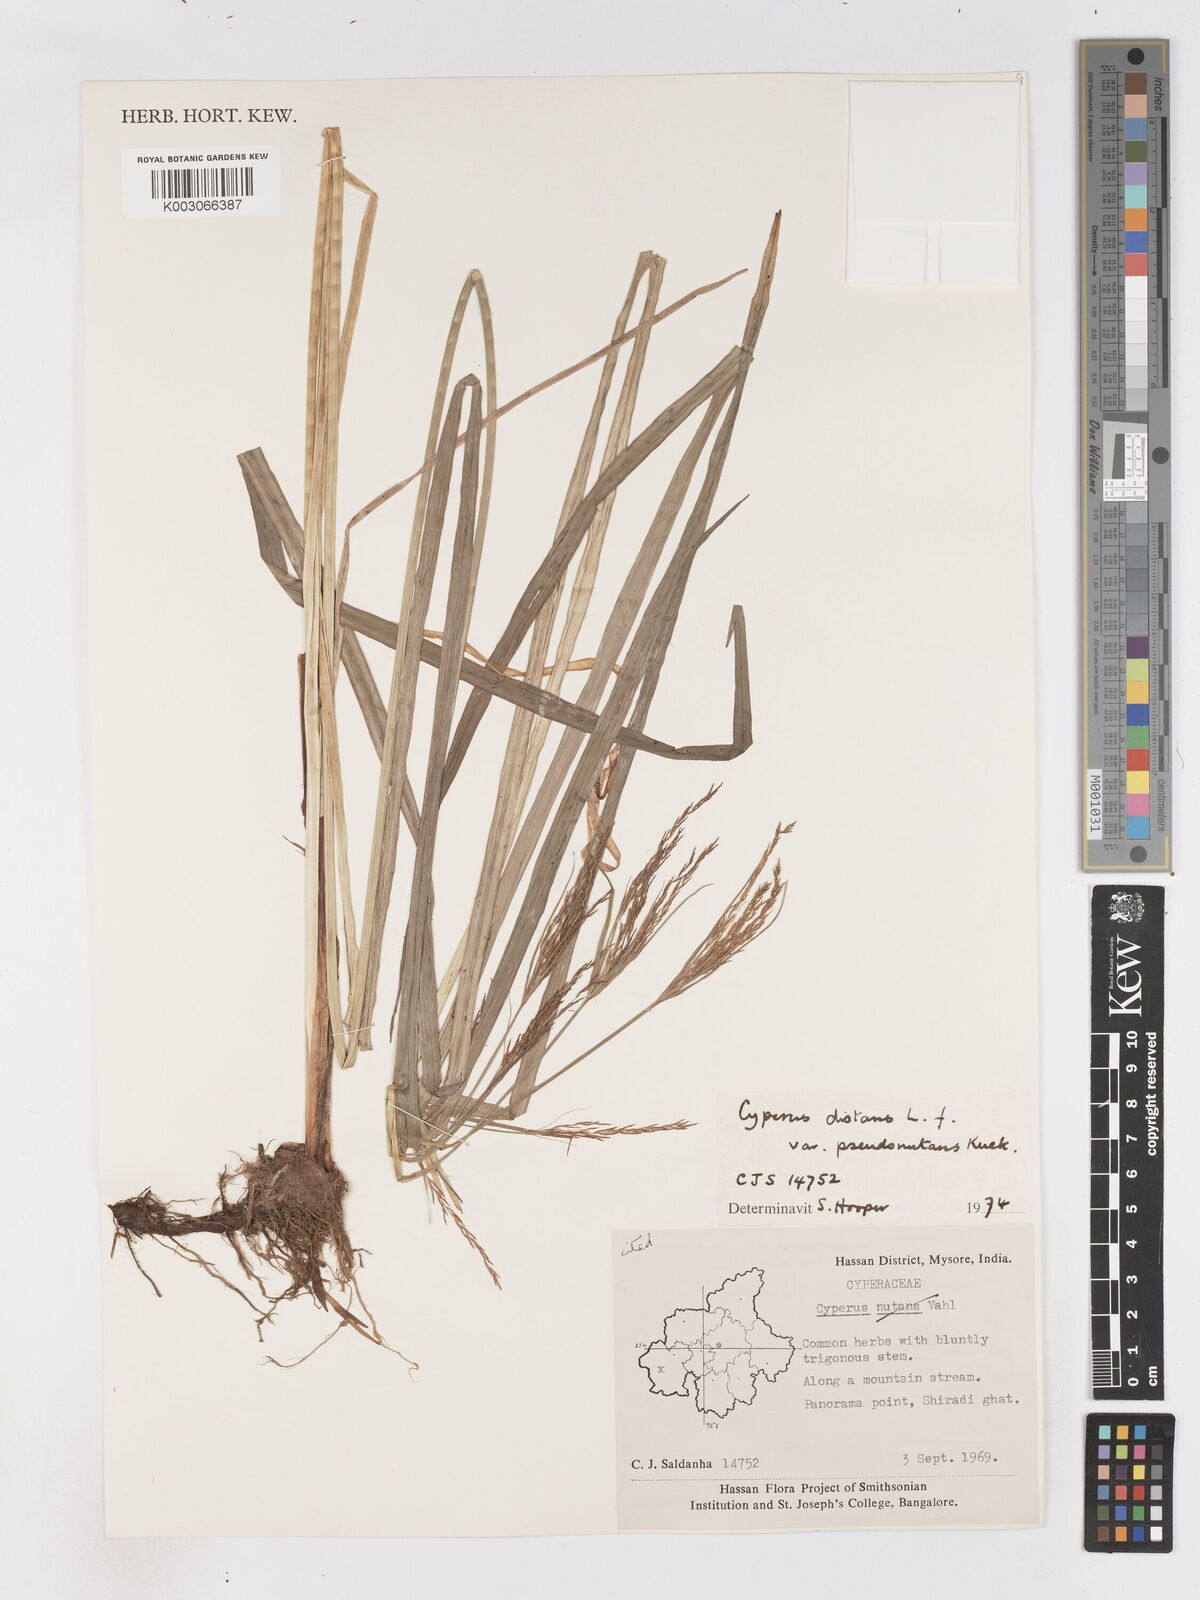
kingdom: Plantae
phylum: Tracheophyta
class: Liliopsida
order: Poales
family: Cyperaceae
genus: Cyperus
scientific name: Cyperus distans
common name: Slender cyperus
